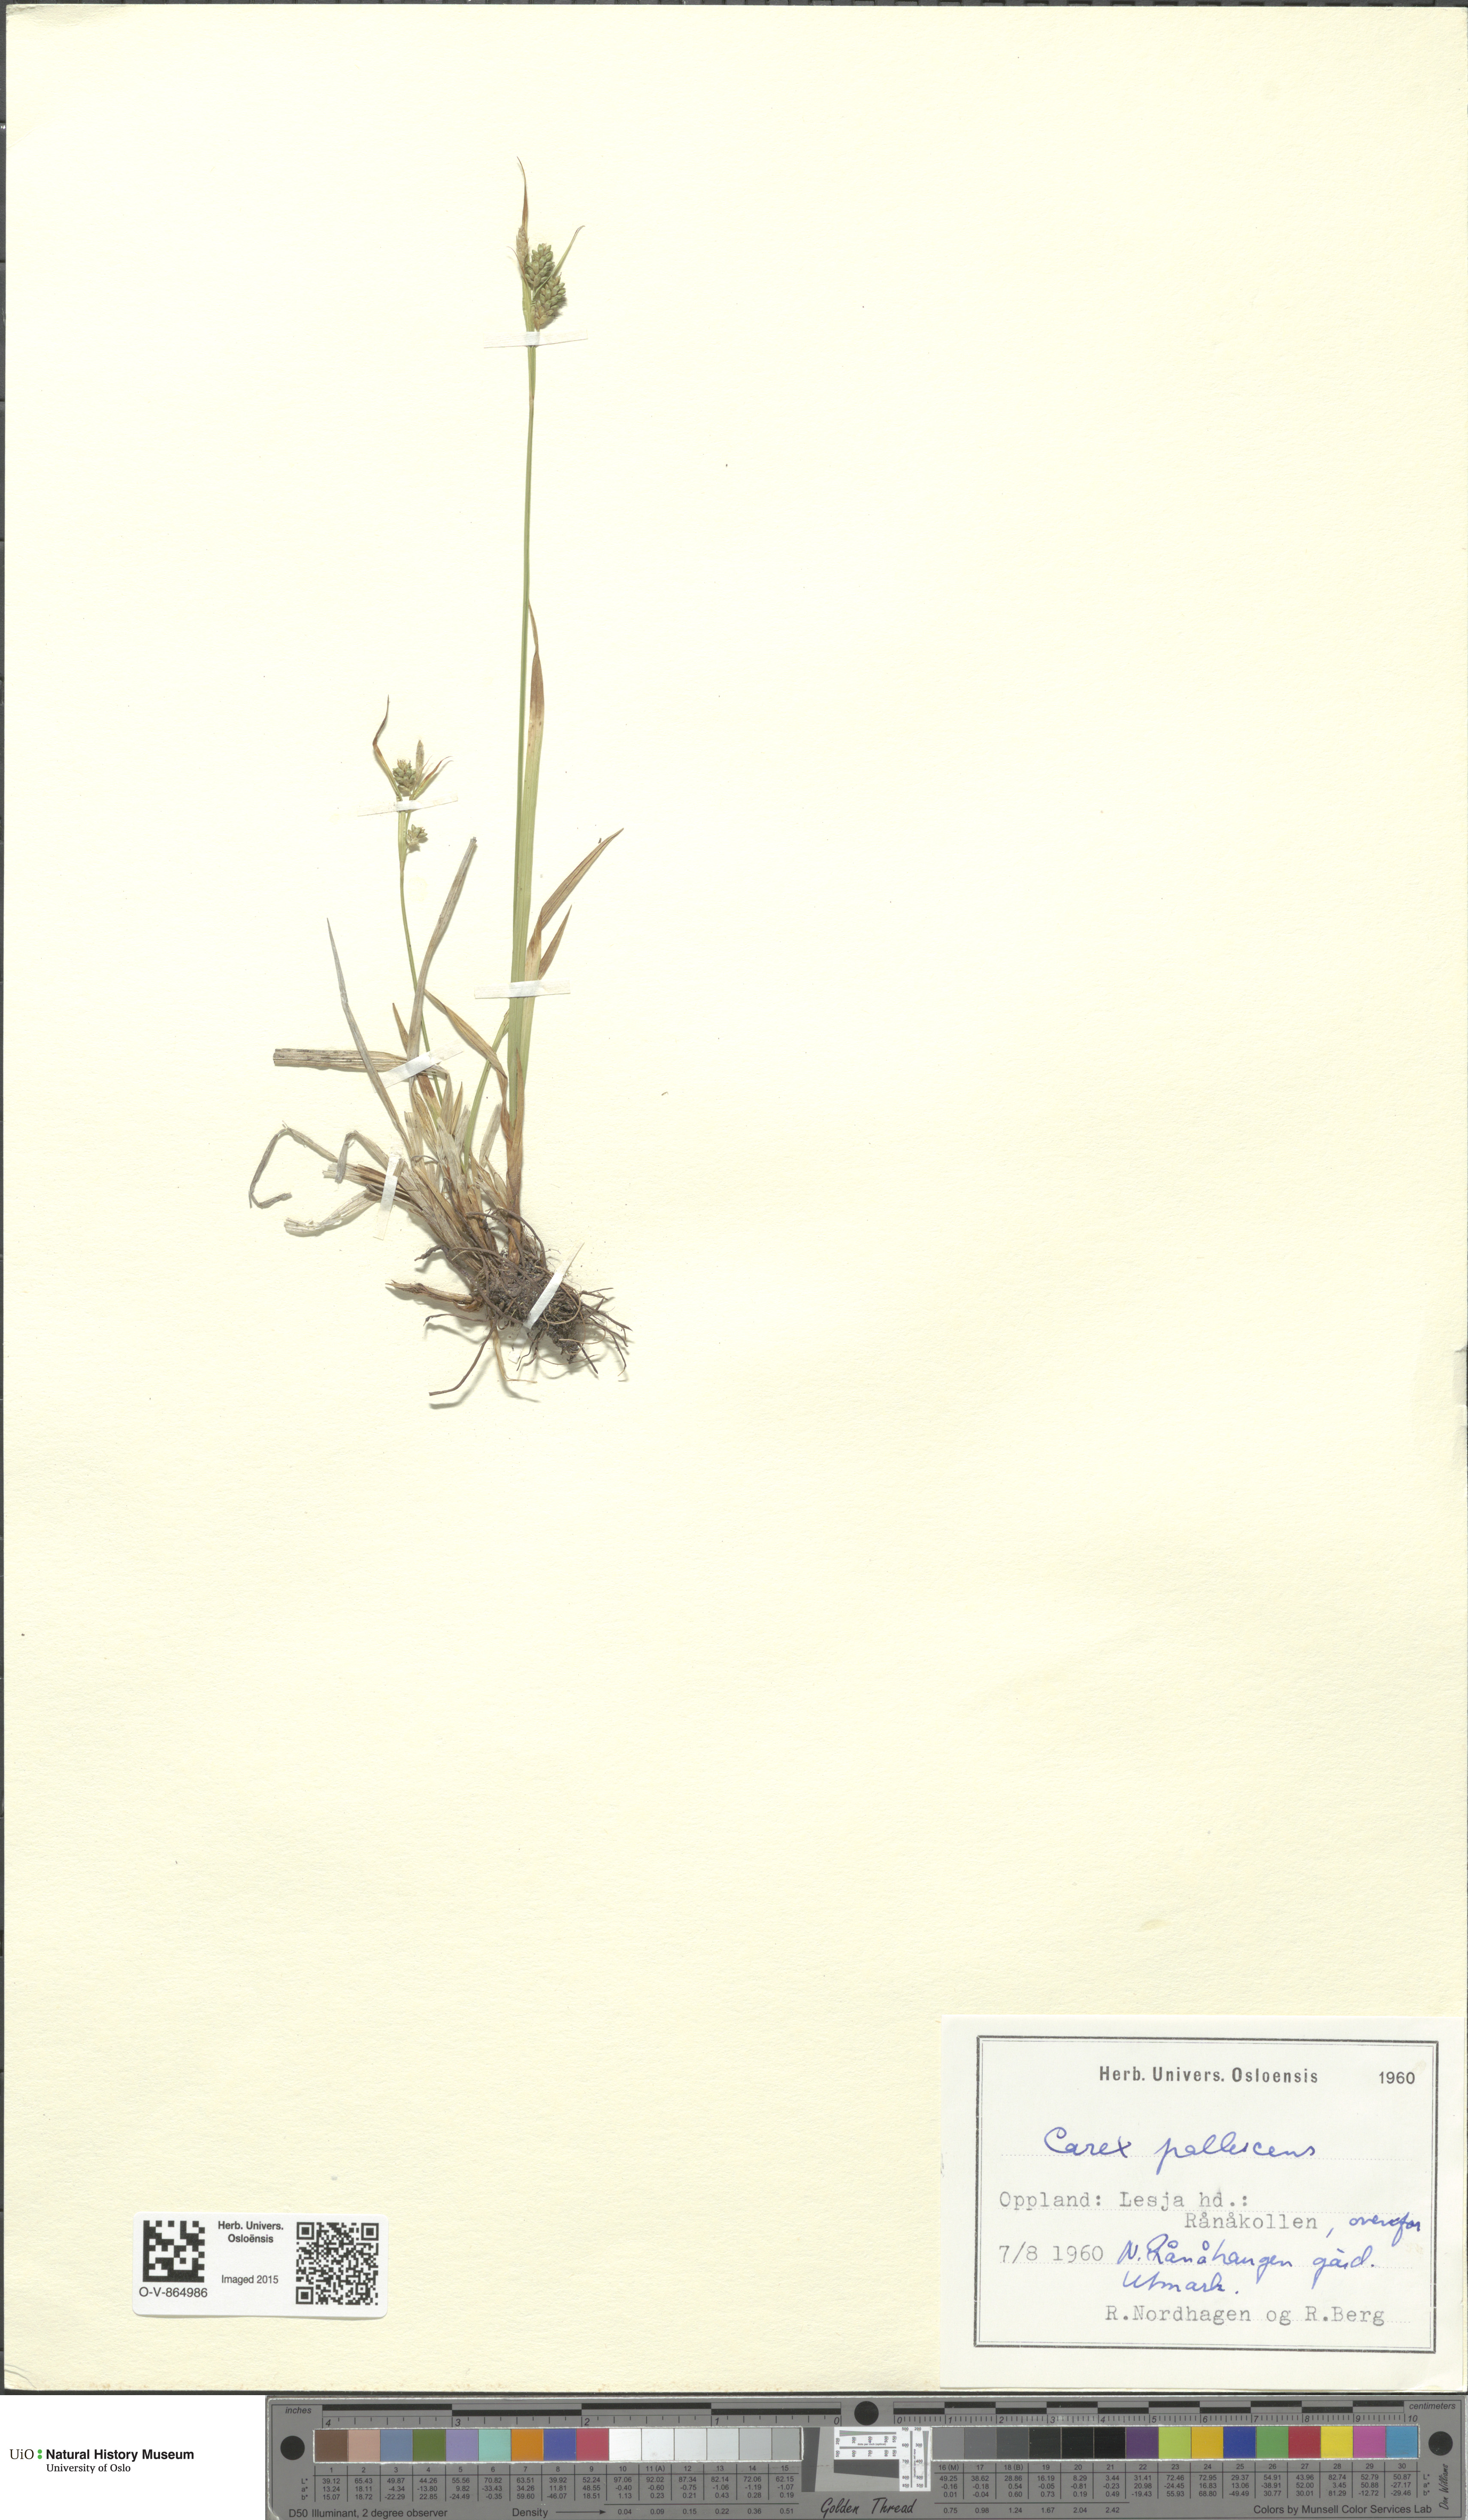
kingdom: Plantae
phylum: Tracheophyta
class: Liliopsida
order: Poales
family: Cyperaceae
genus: Carex
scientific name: Carex pallescens
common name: Pale sedge
